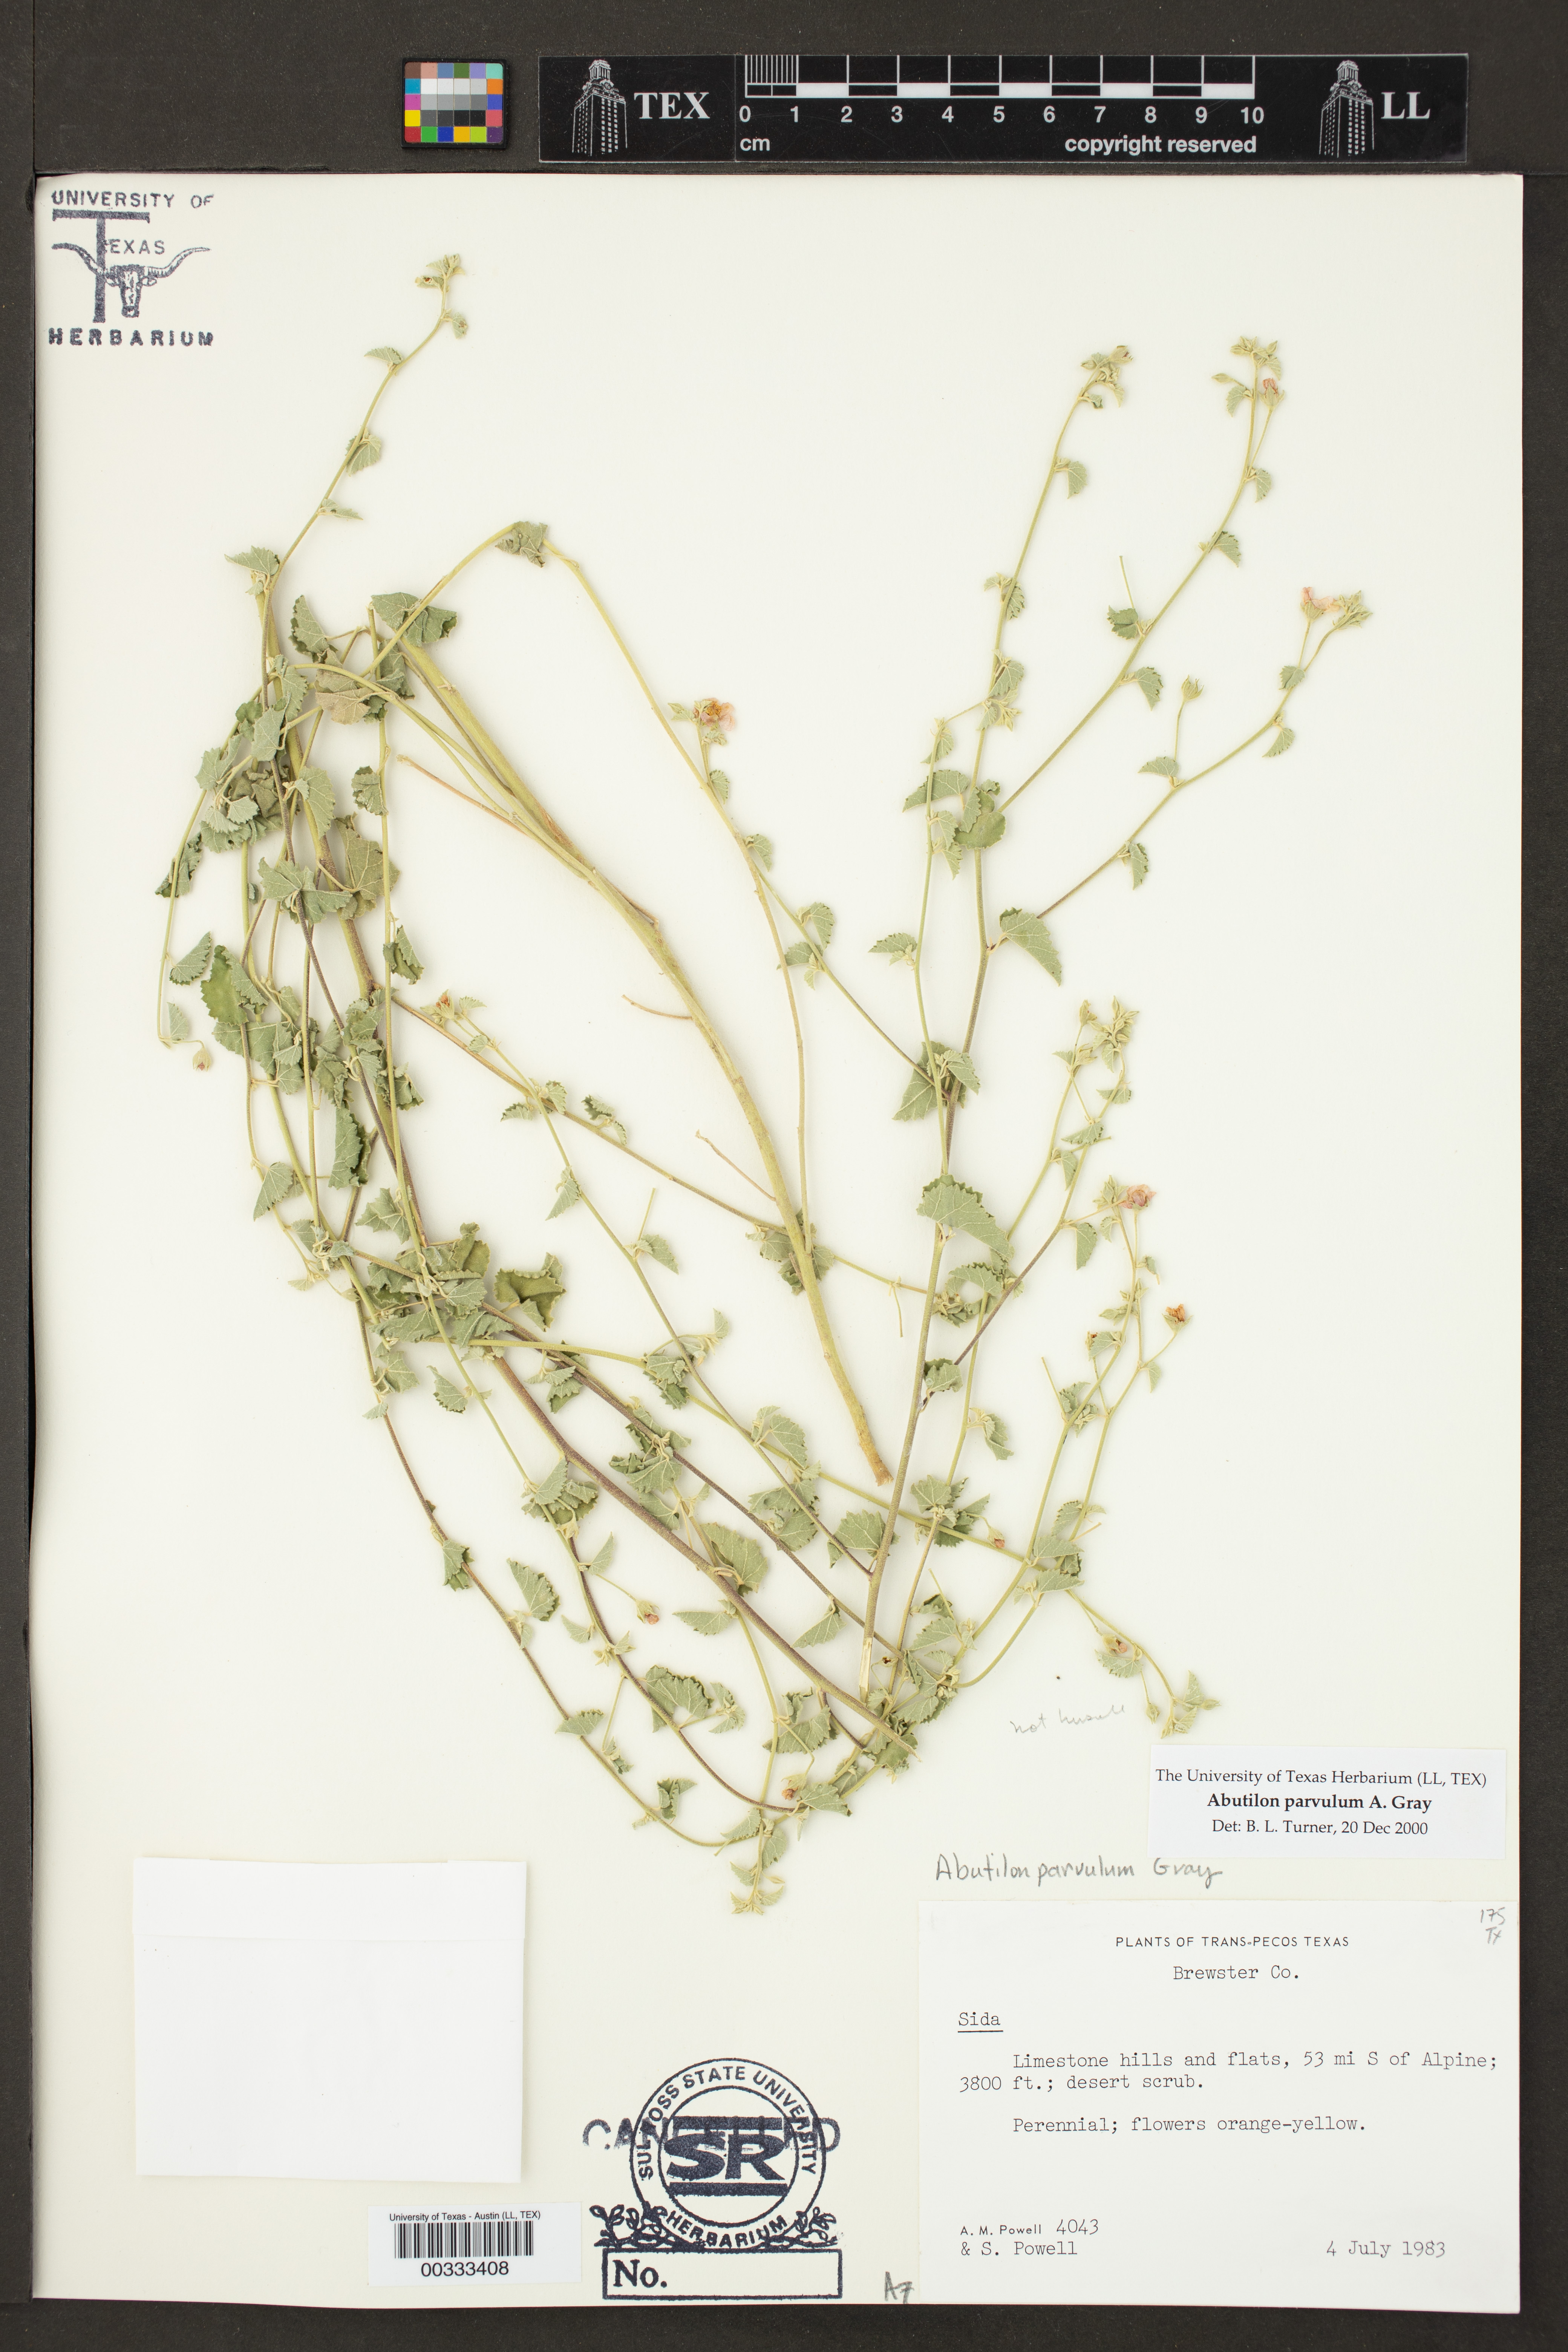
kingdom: Plantae
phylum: Tracheophyta
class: Magnoliopsida
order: Malvales
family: Malvaceae
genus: Abutilon
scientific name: Abutilon parvulum
